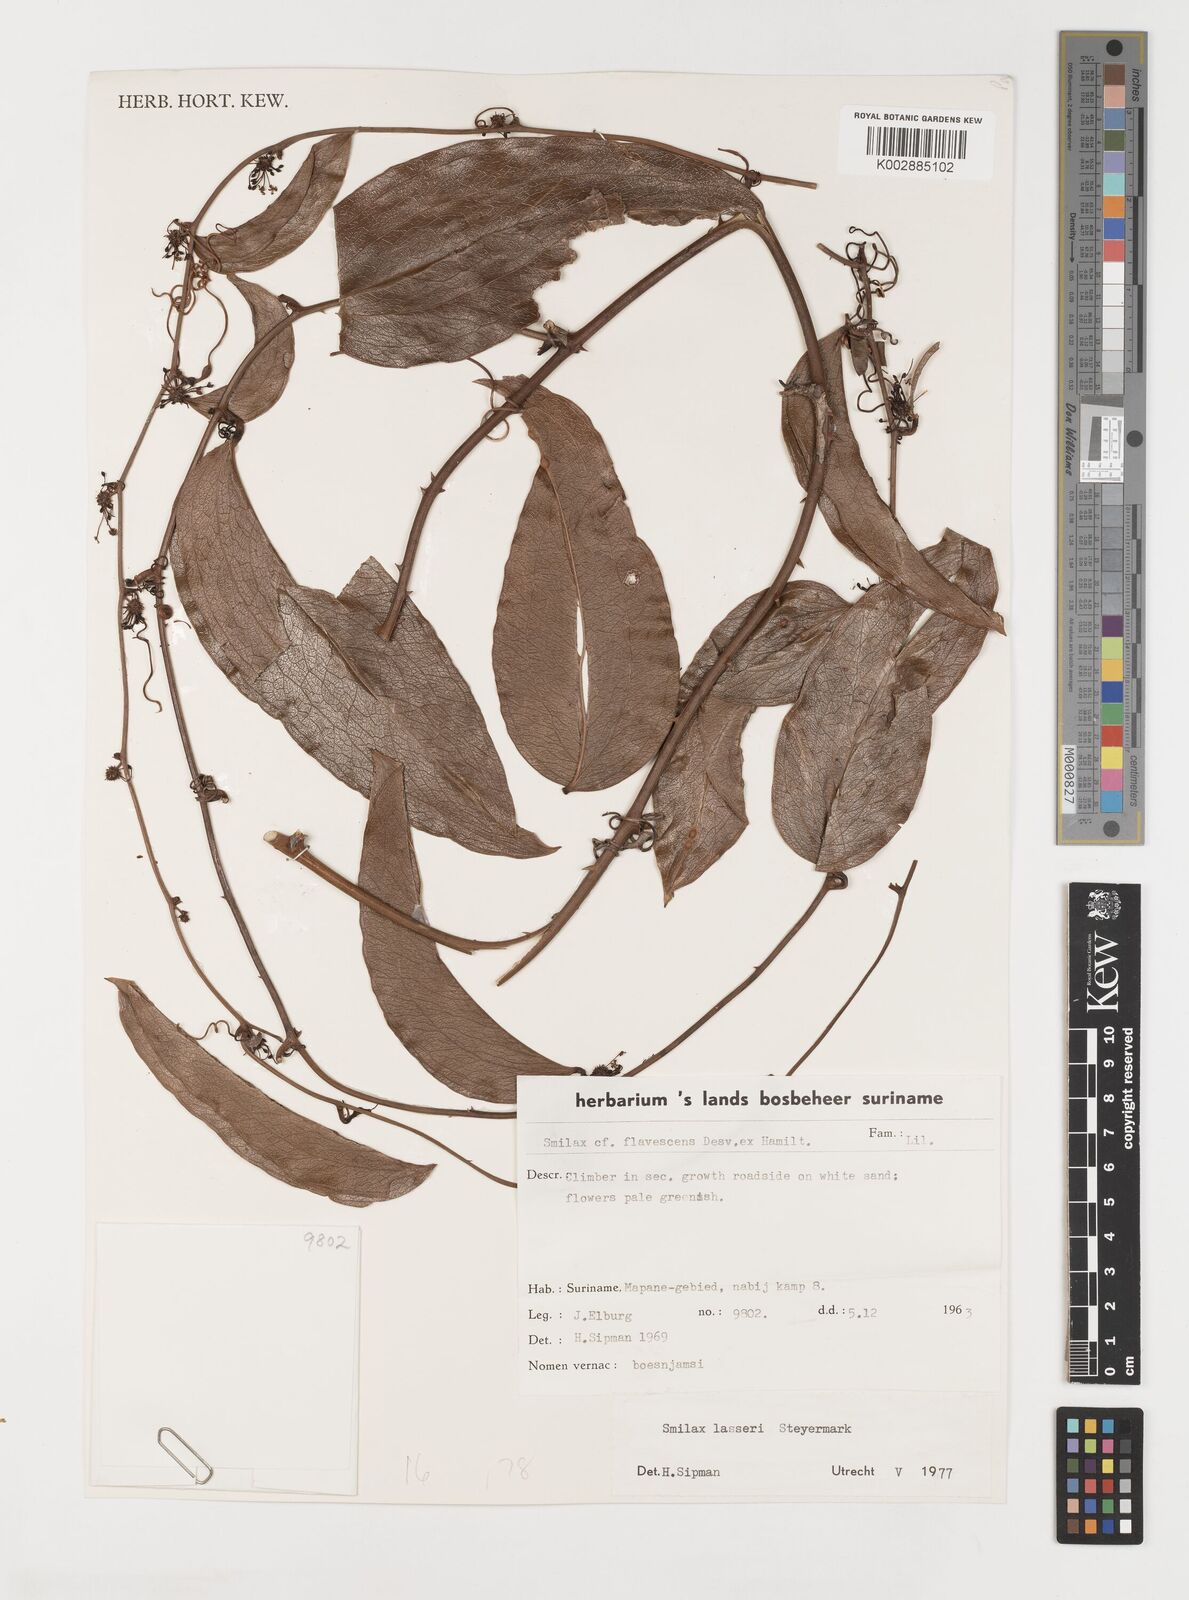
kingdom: Plantae
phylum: Tracheophyta
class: Liliopsida
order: Liliales
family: Smilacaceae
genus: Smilax
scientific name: Smilax domingensis
